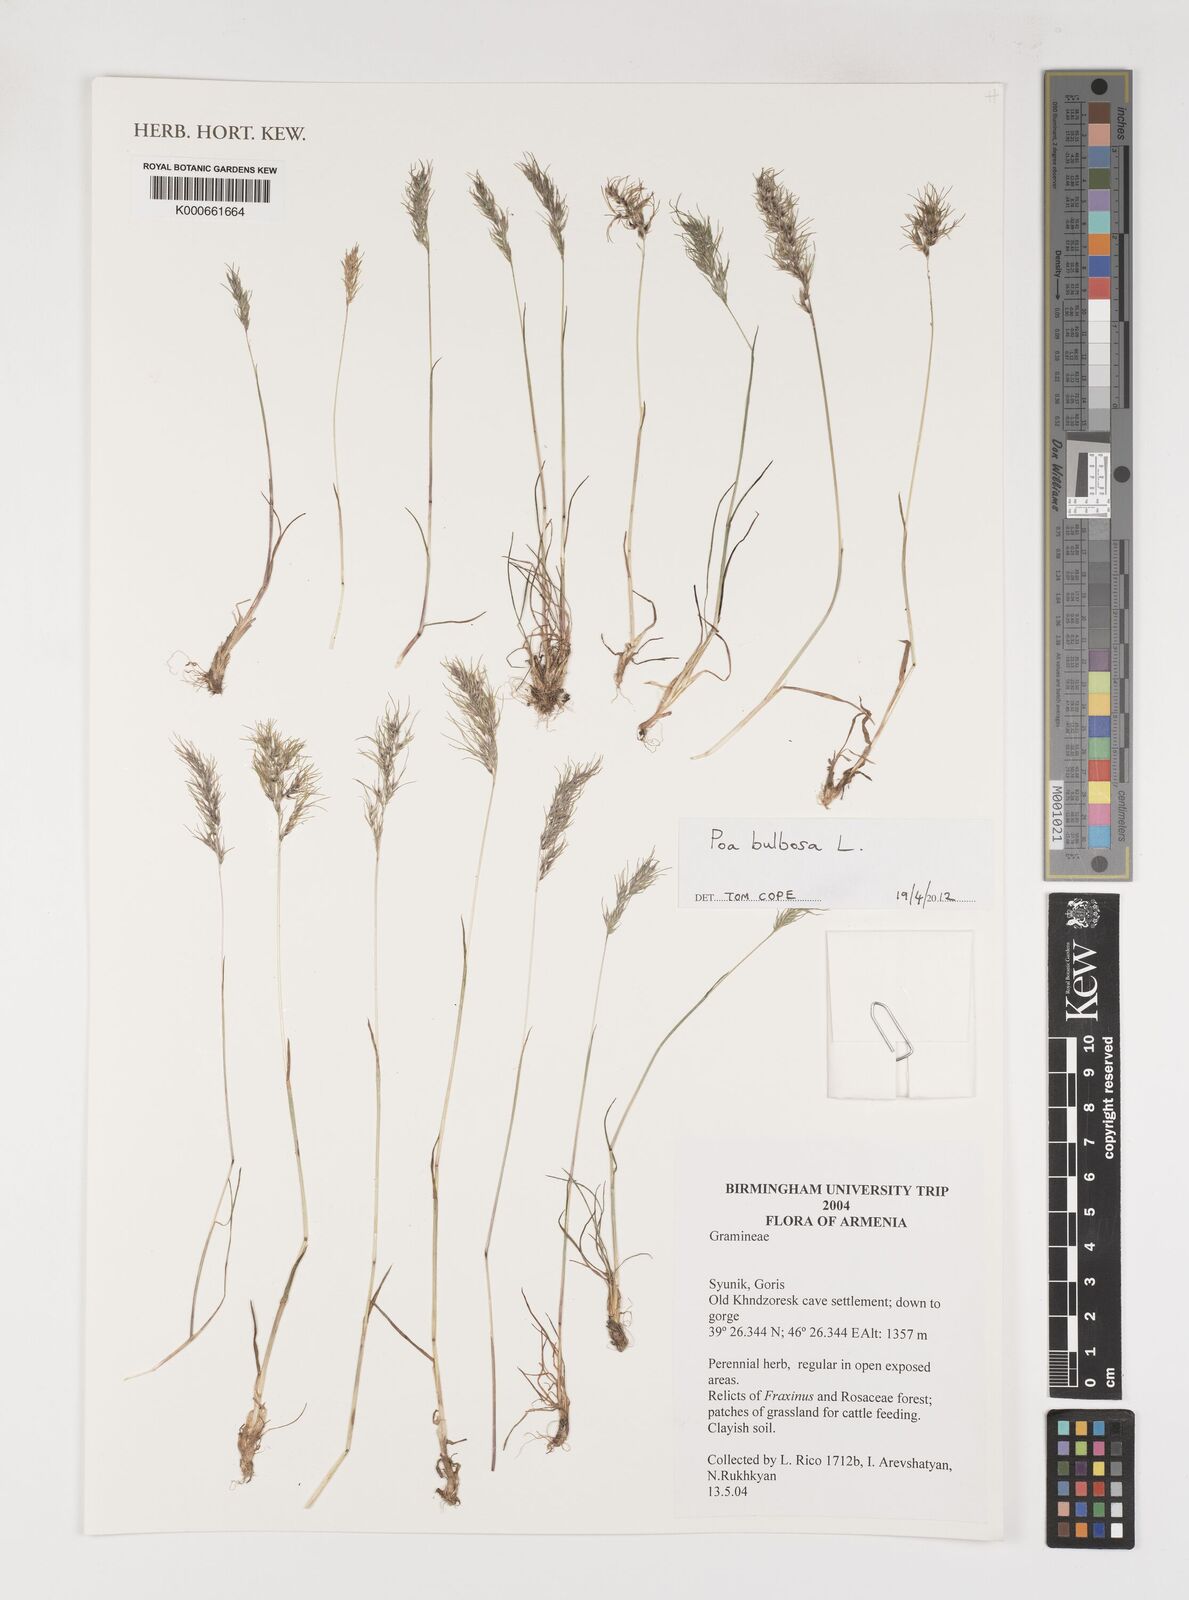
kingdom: Plantae
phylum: Tracheophyta
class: Liliopsida
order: Poales
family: Poaceae
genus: Poa
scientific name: Poa bulbosa
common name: Bulbous bluegrass
